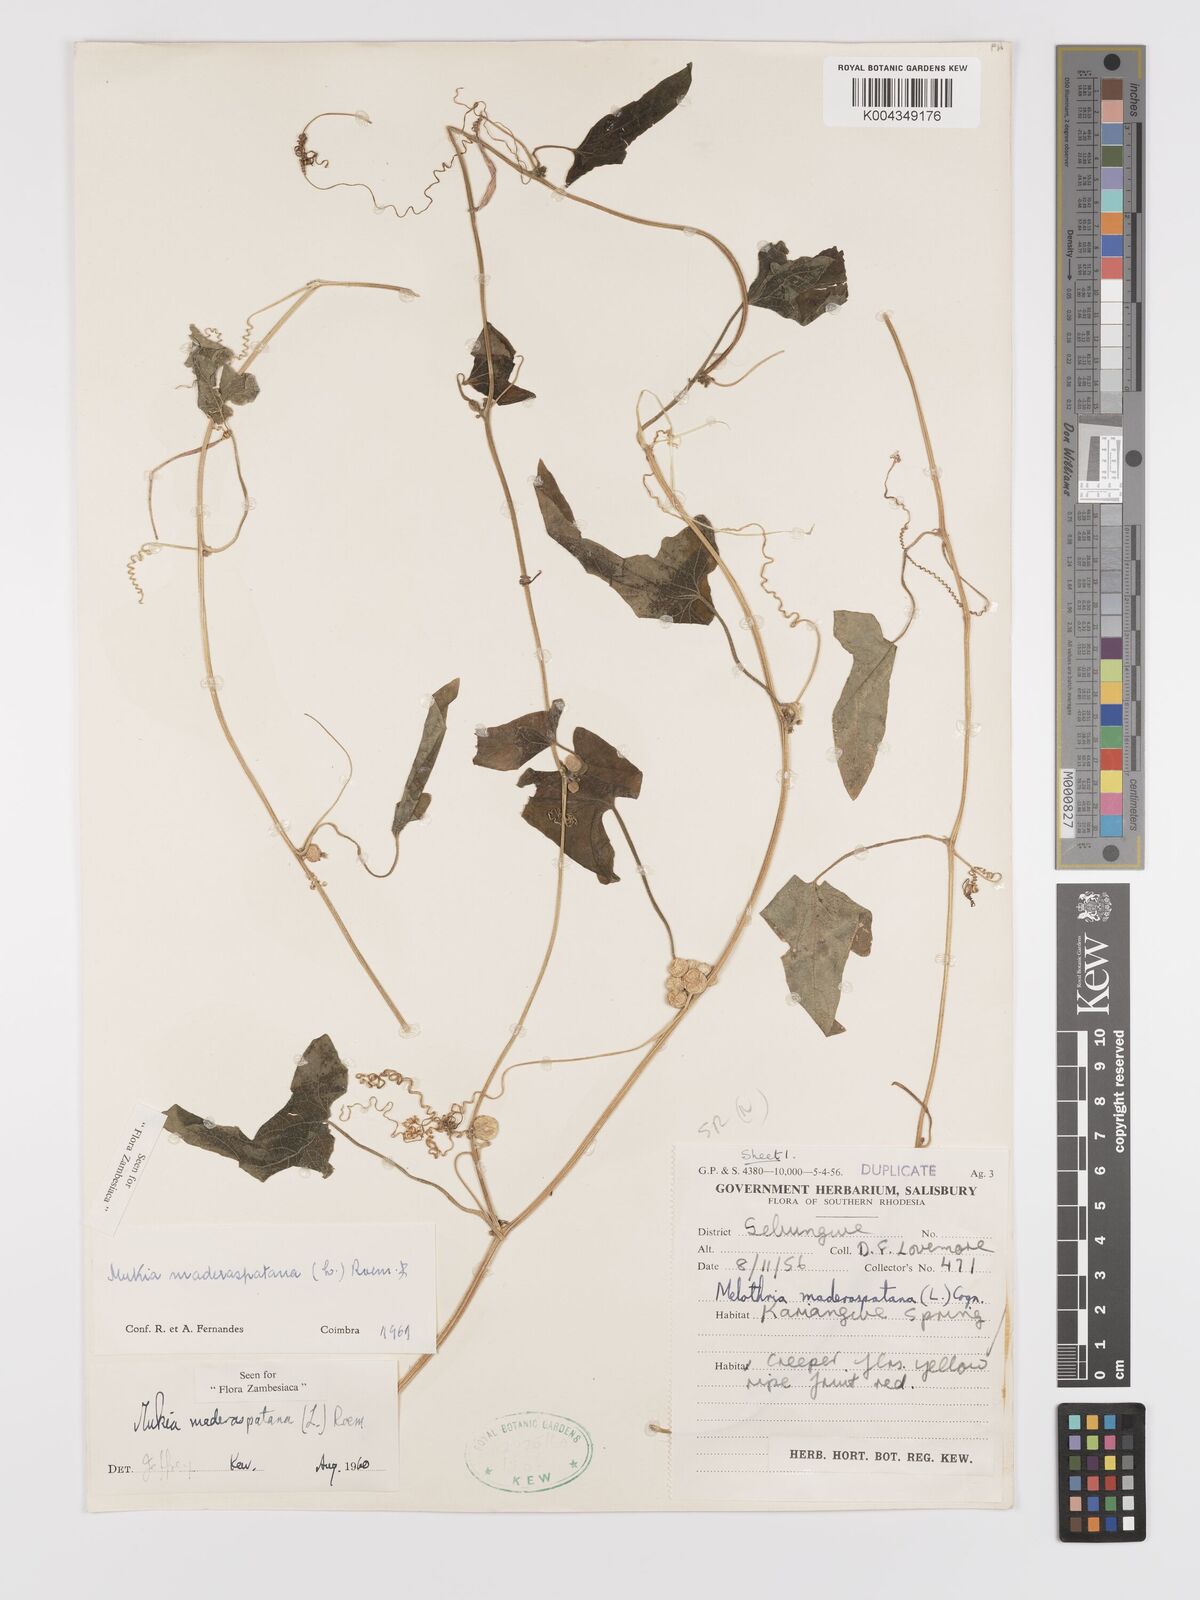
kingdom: Plantae
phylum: Tracheophyta
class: Magnoliopsida
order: Cucurbitales
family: Cucurbitaceae
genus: Cucumis
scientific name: Cucumis maderaspatanus
